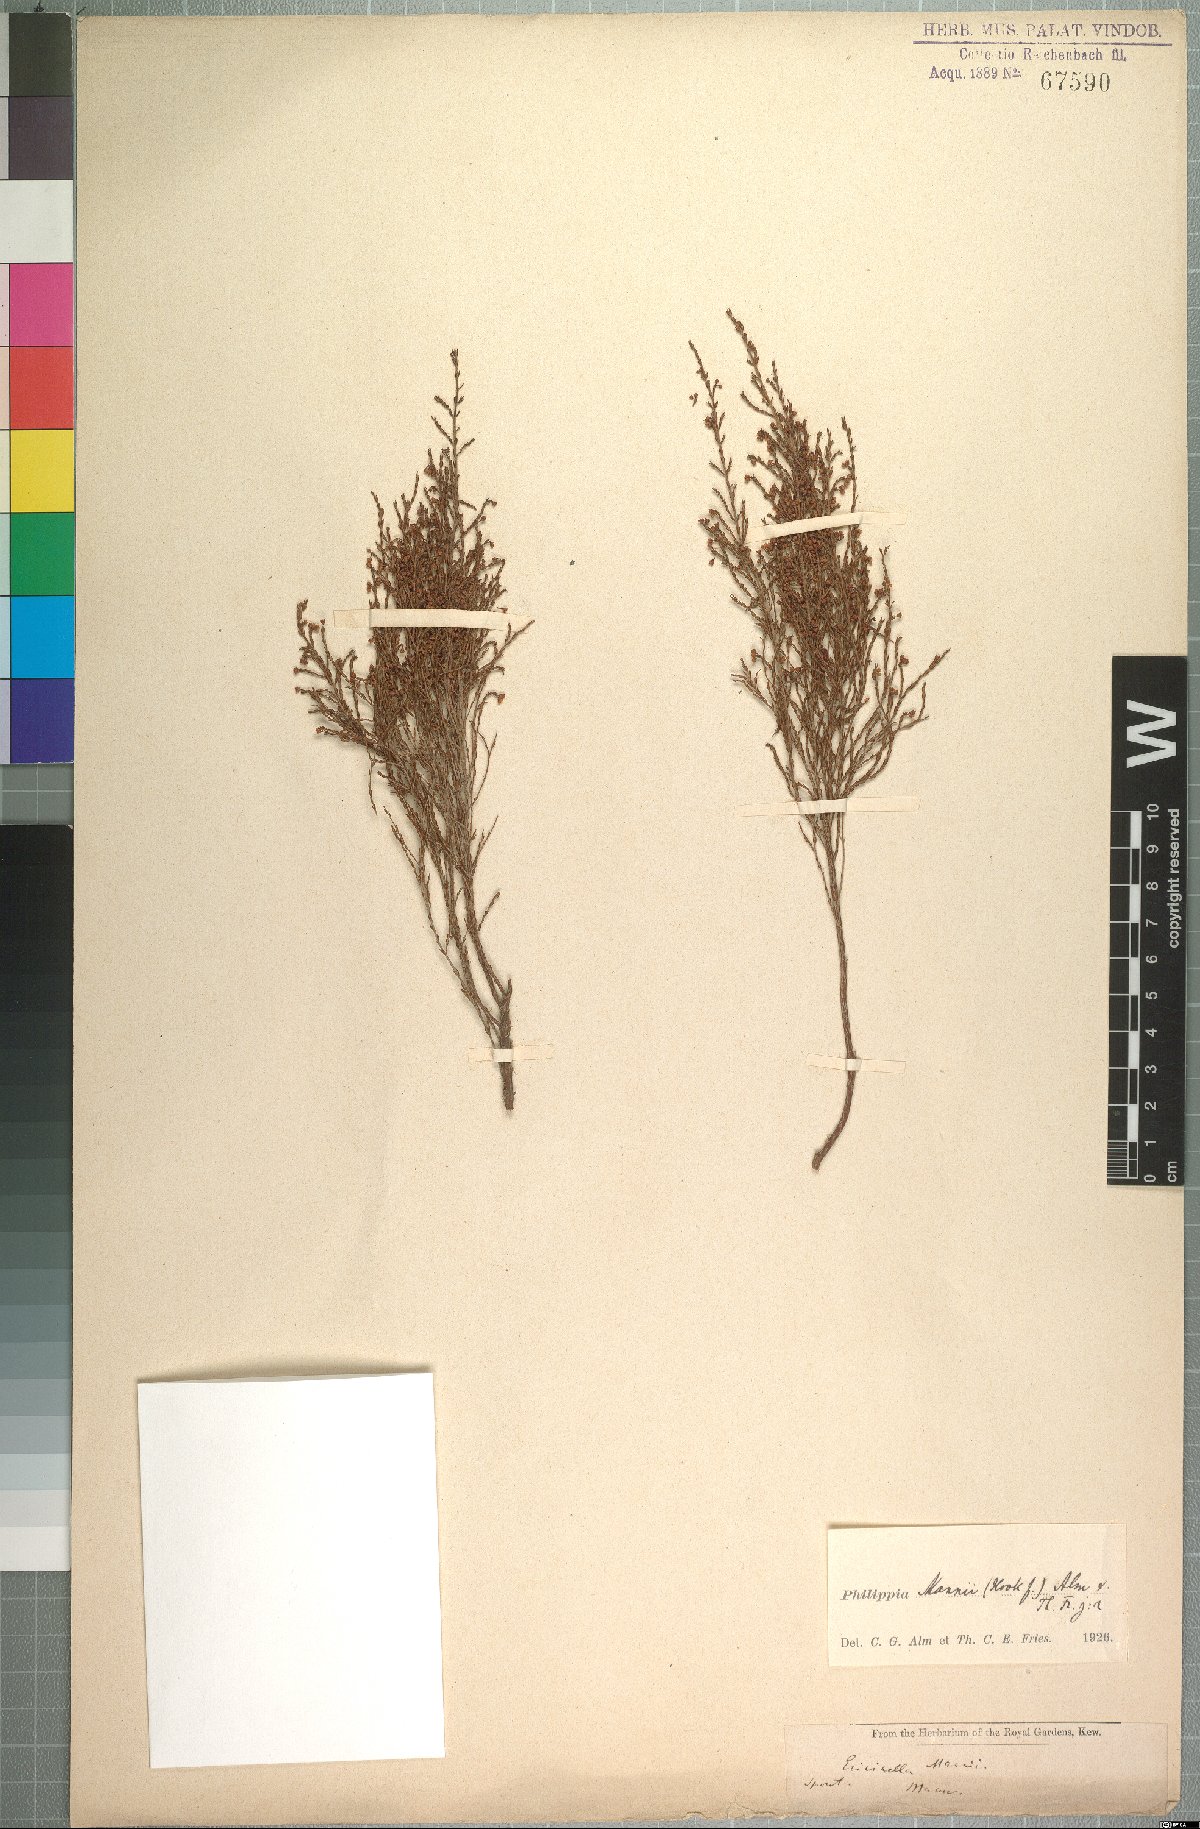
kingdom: Plantae
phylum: Tracheophyta
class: Magnoliopsida
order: Ericales
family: Ericaceae
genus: Erica
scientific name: Erica mannii
